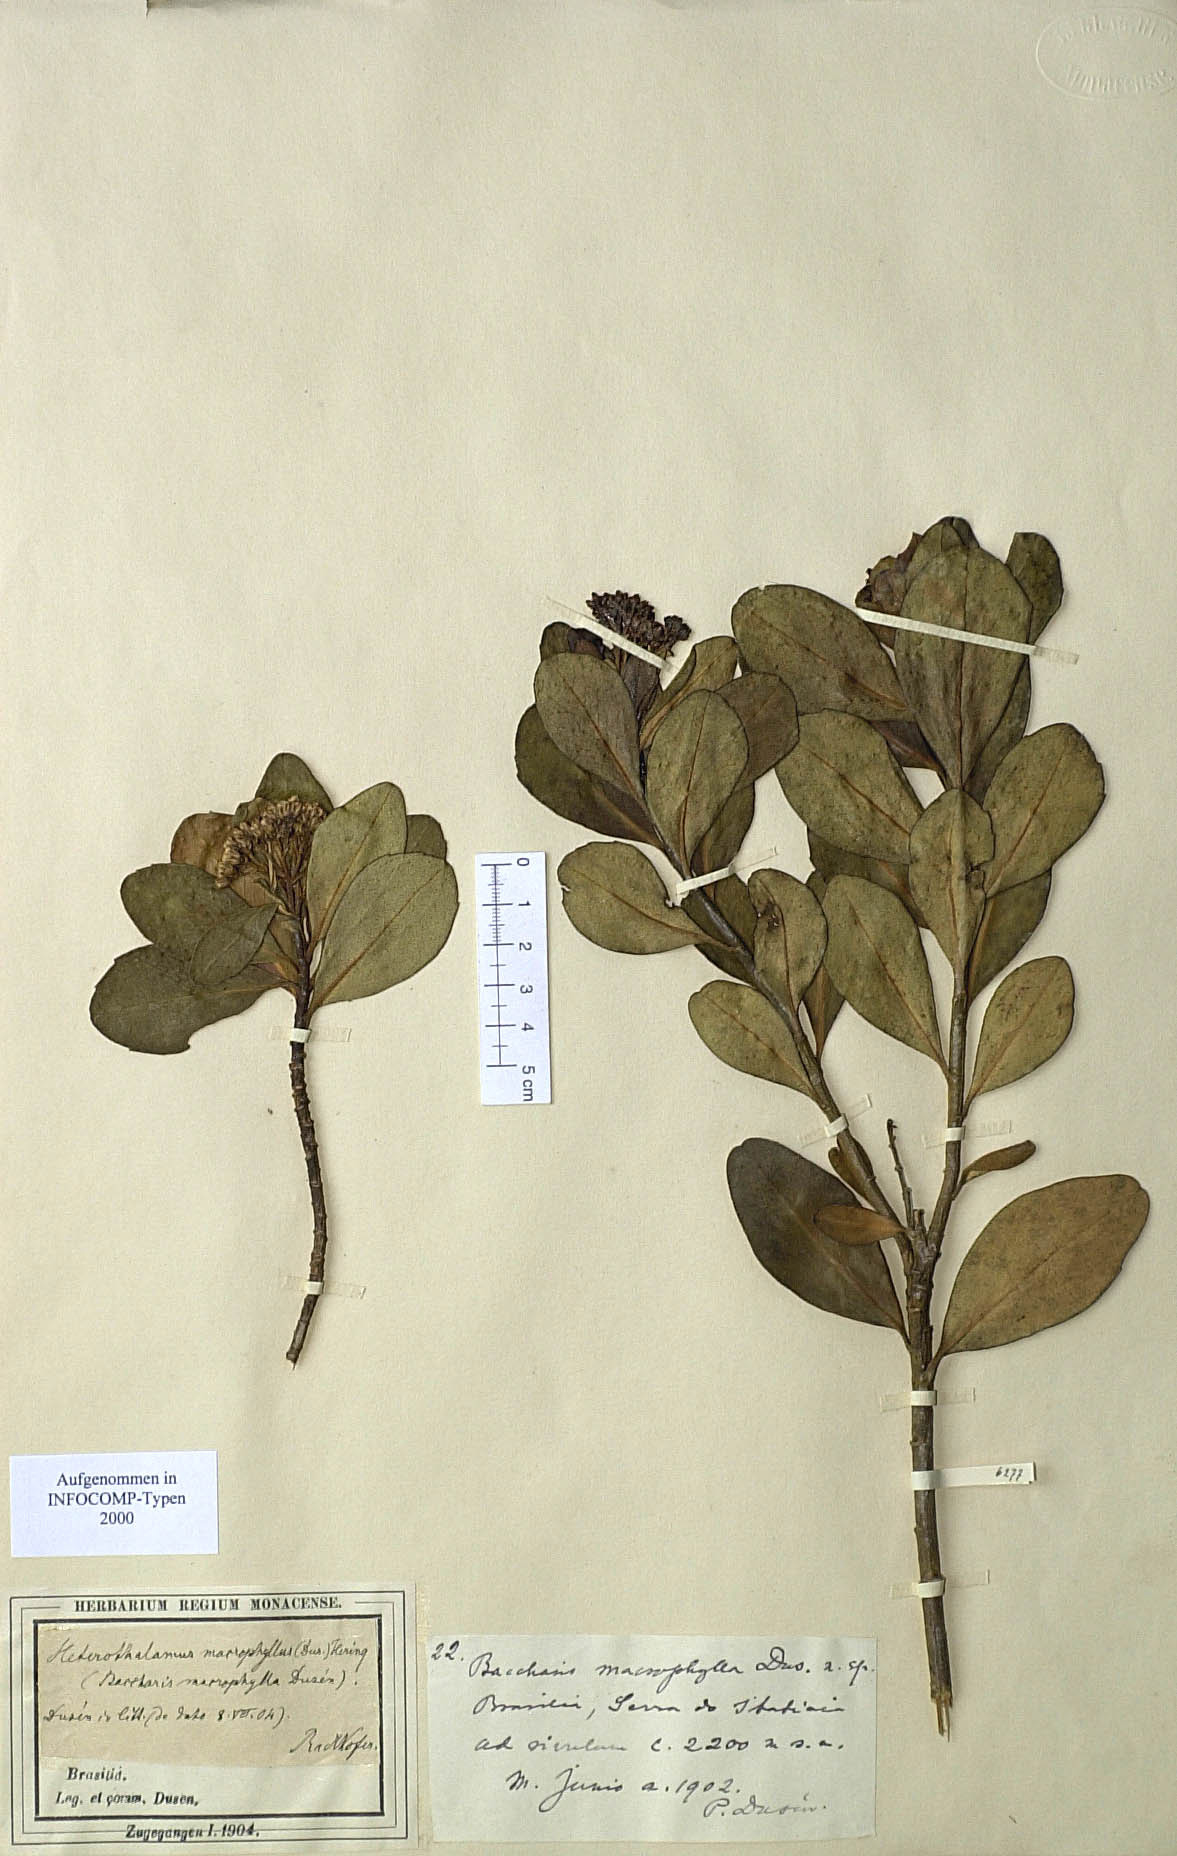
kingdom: Plantae
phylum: Tracheophyta
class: Magnoliopsida
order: Asterales
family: Asteraceae
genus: Pseudobaccharis
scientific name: Pseudobaccharis macrophylla
